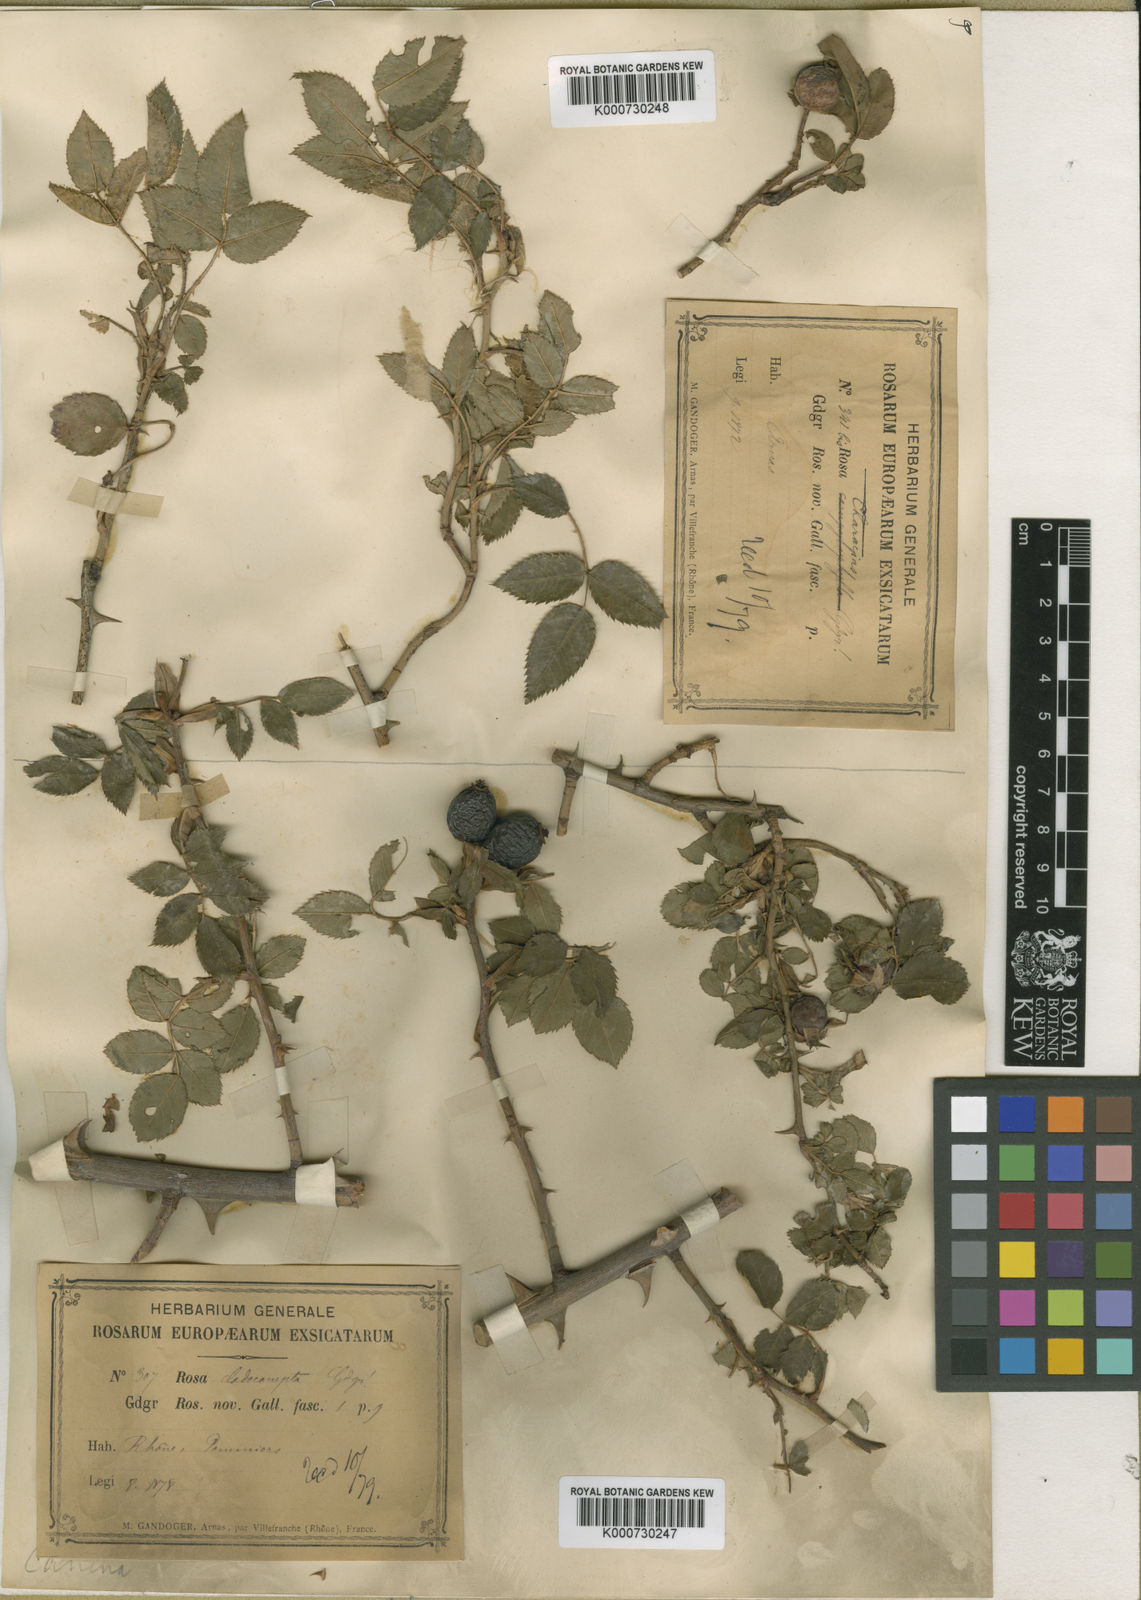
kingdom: Plantae
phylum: Tracheophyta
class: Magnoliopsida
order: Rosales
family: Rosaceae
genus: Rosa
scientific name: Rosa canina
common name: Dog rose
